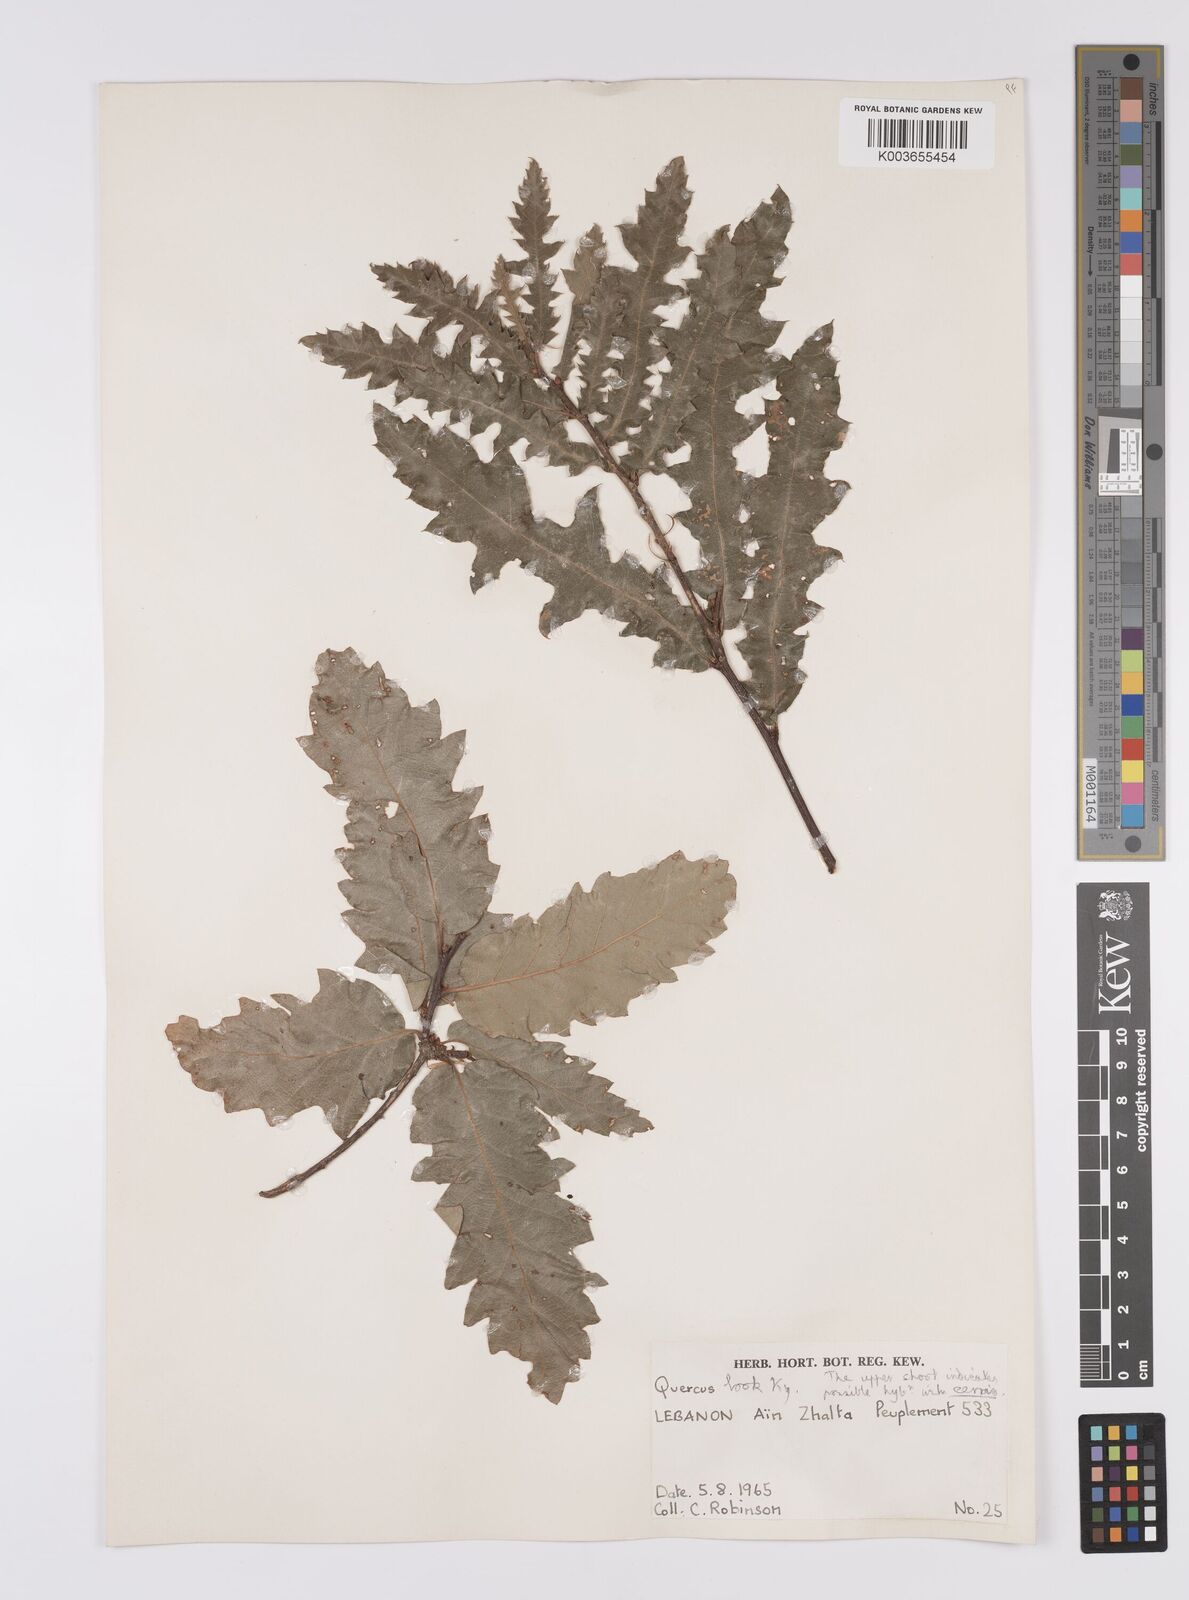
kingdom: Plantae
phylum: Tracheophyta
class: Magnoliopsida
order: Fagales
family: Fagaceae
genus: Quercus
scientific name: Quercus look
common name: Look oak
